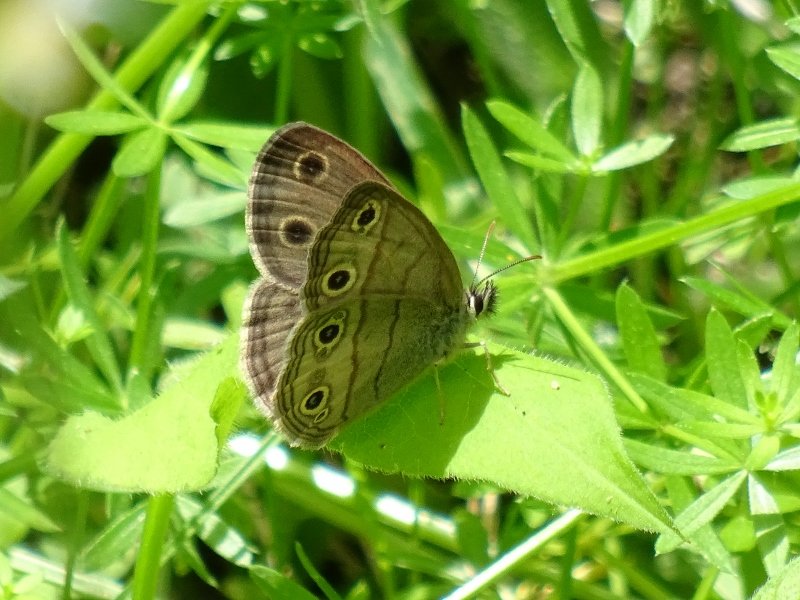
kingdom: Animalia
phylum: Arthropoda
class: Insecta
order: Lepidoptera
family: Nymphalidae
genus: Euptychia
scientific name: Euptychia cymela
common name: Little Wood Satyr
